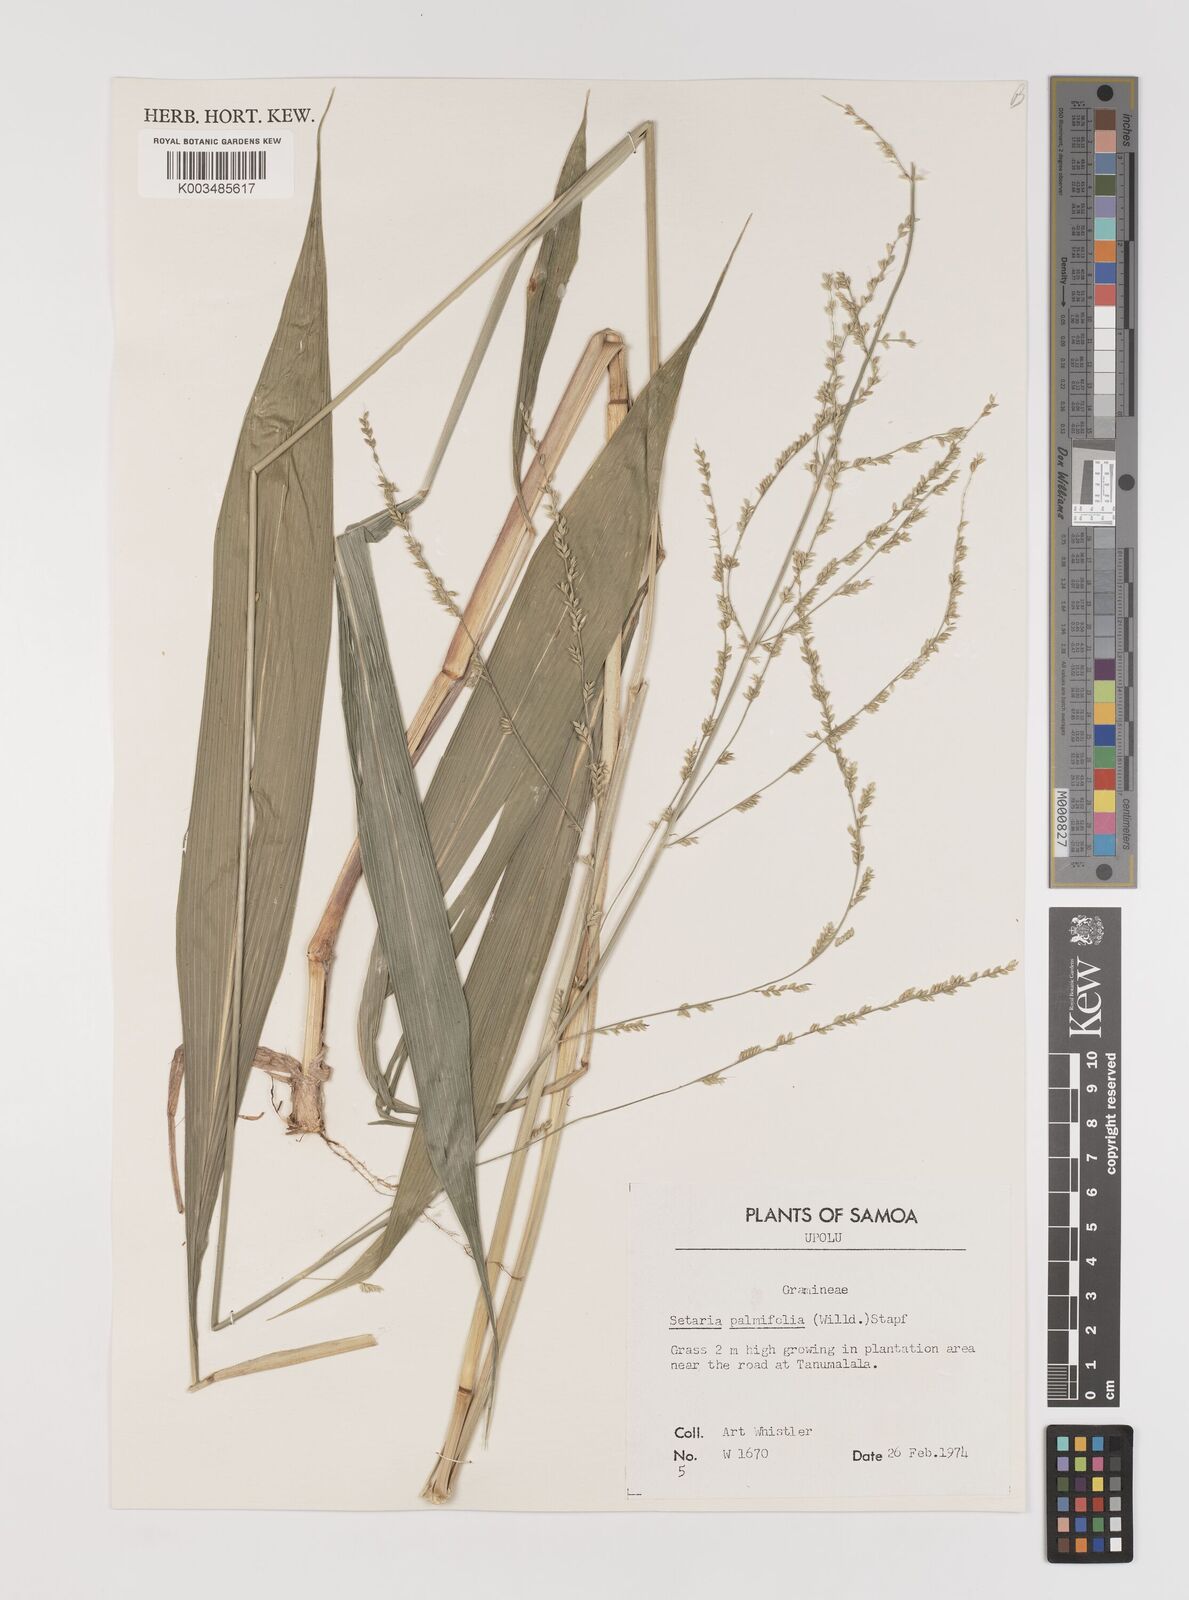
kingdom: Plantae
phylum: Tracheophyta
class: Liliopsida
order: Poales
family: Poaceae
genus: Setaria
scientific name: Setaria palmifolia
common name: Broadleaved bristlegrass
